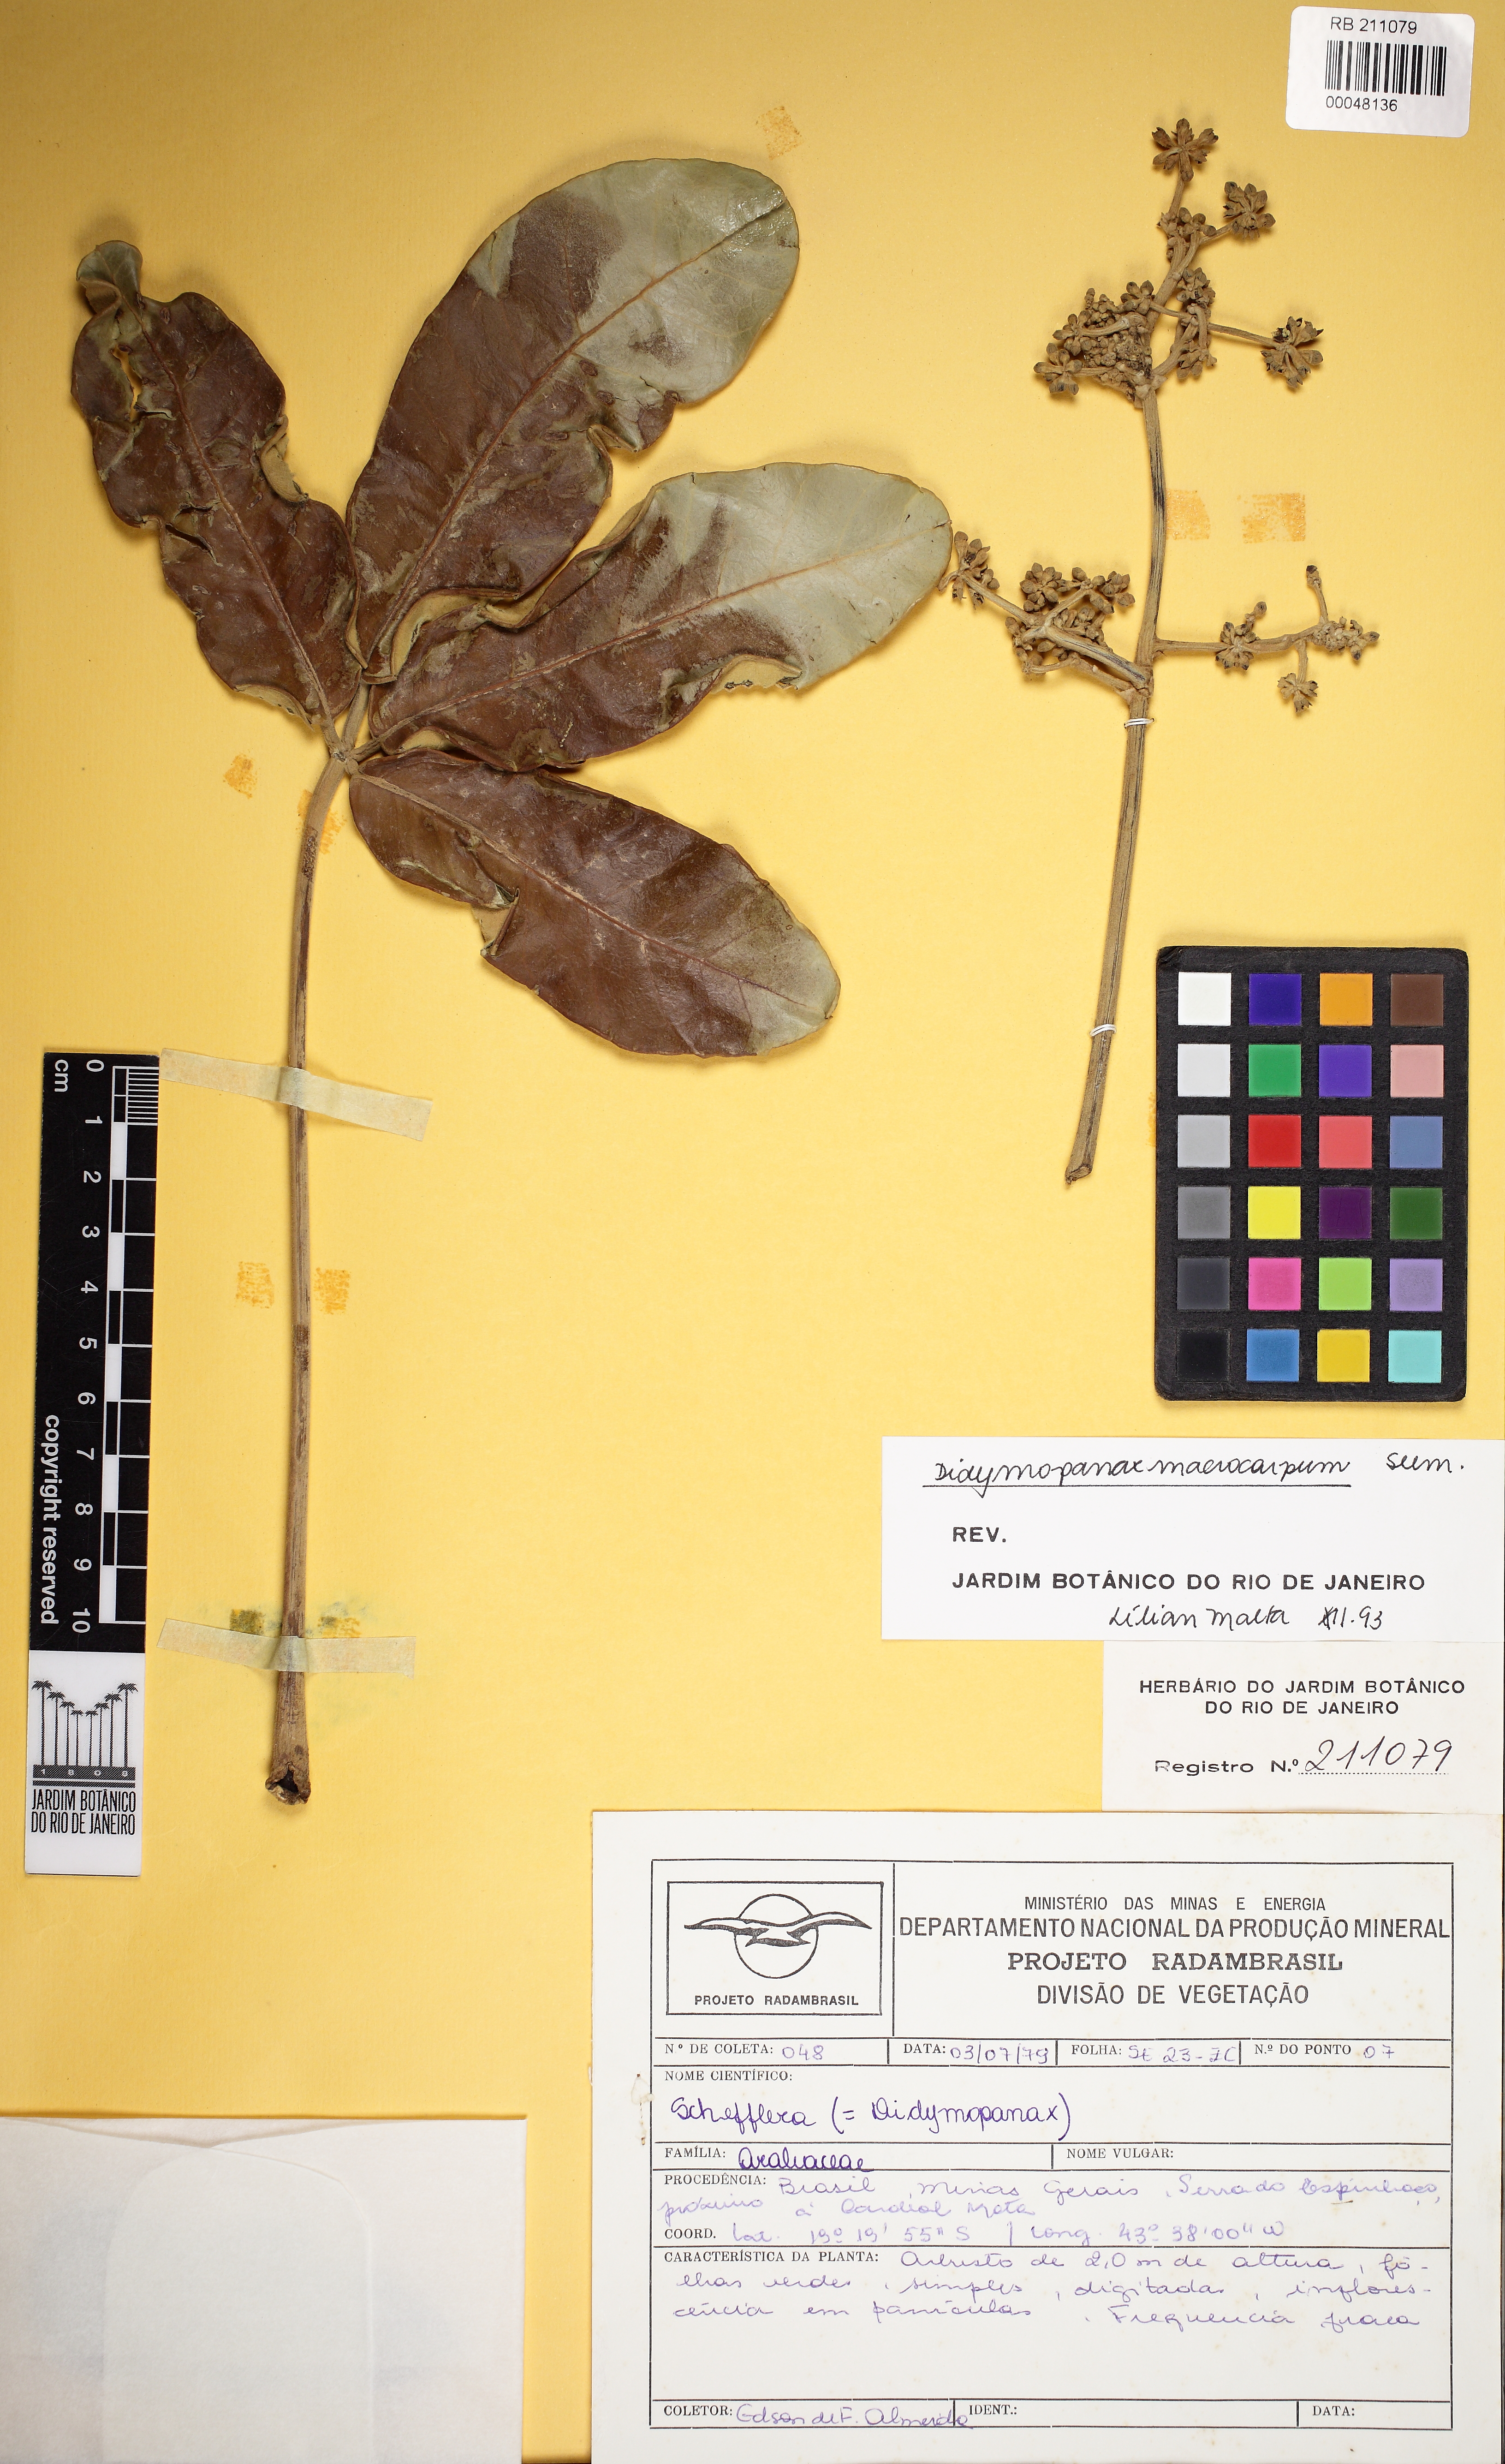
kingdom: Plantae
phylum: Tracheophyta
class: Magnoliopsida
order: Apiales
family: Araliaceae
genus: Didymopanax
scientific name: Didymopanax macrocarpus
